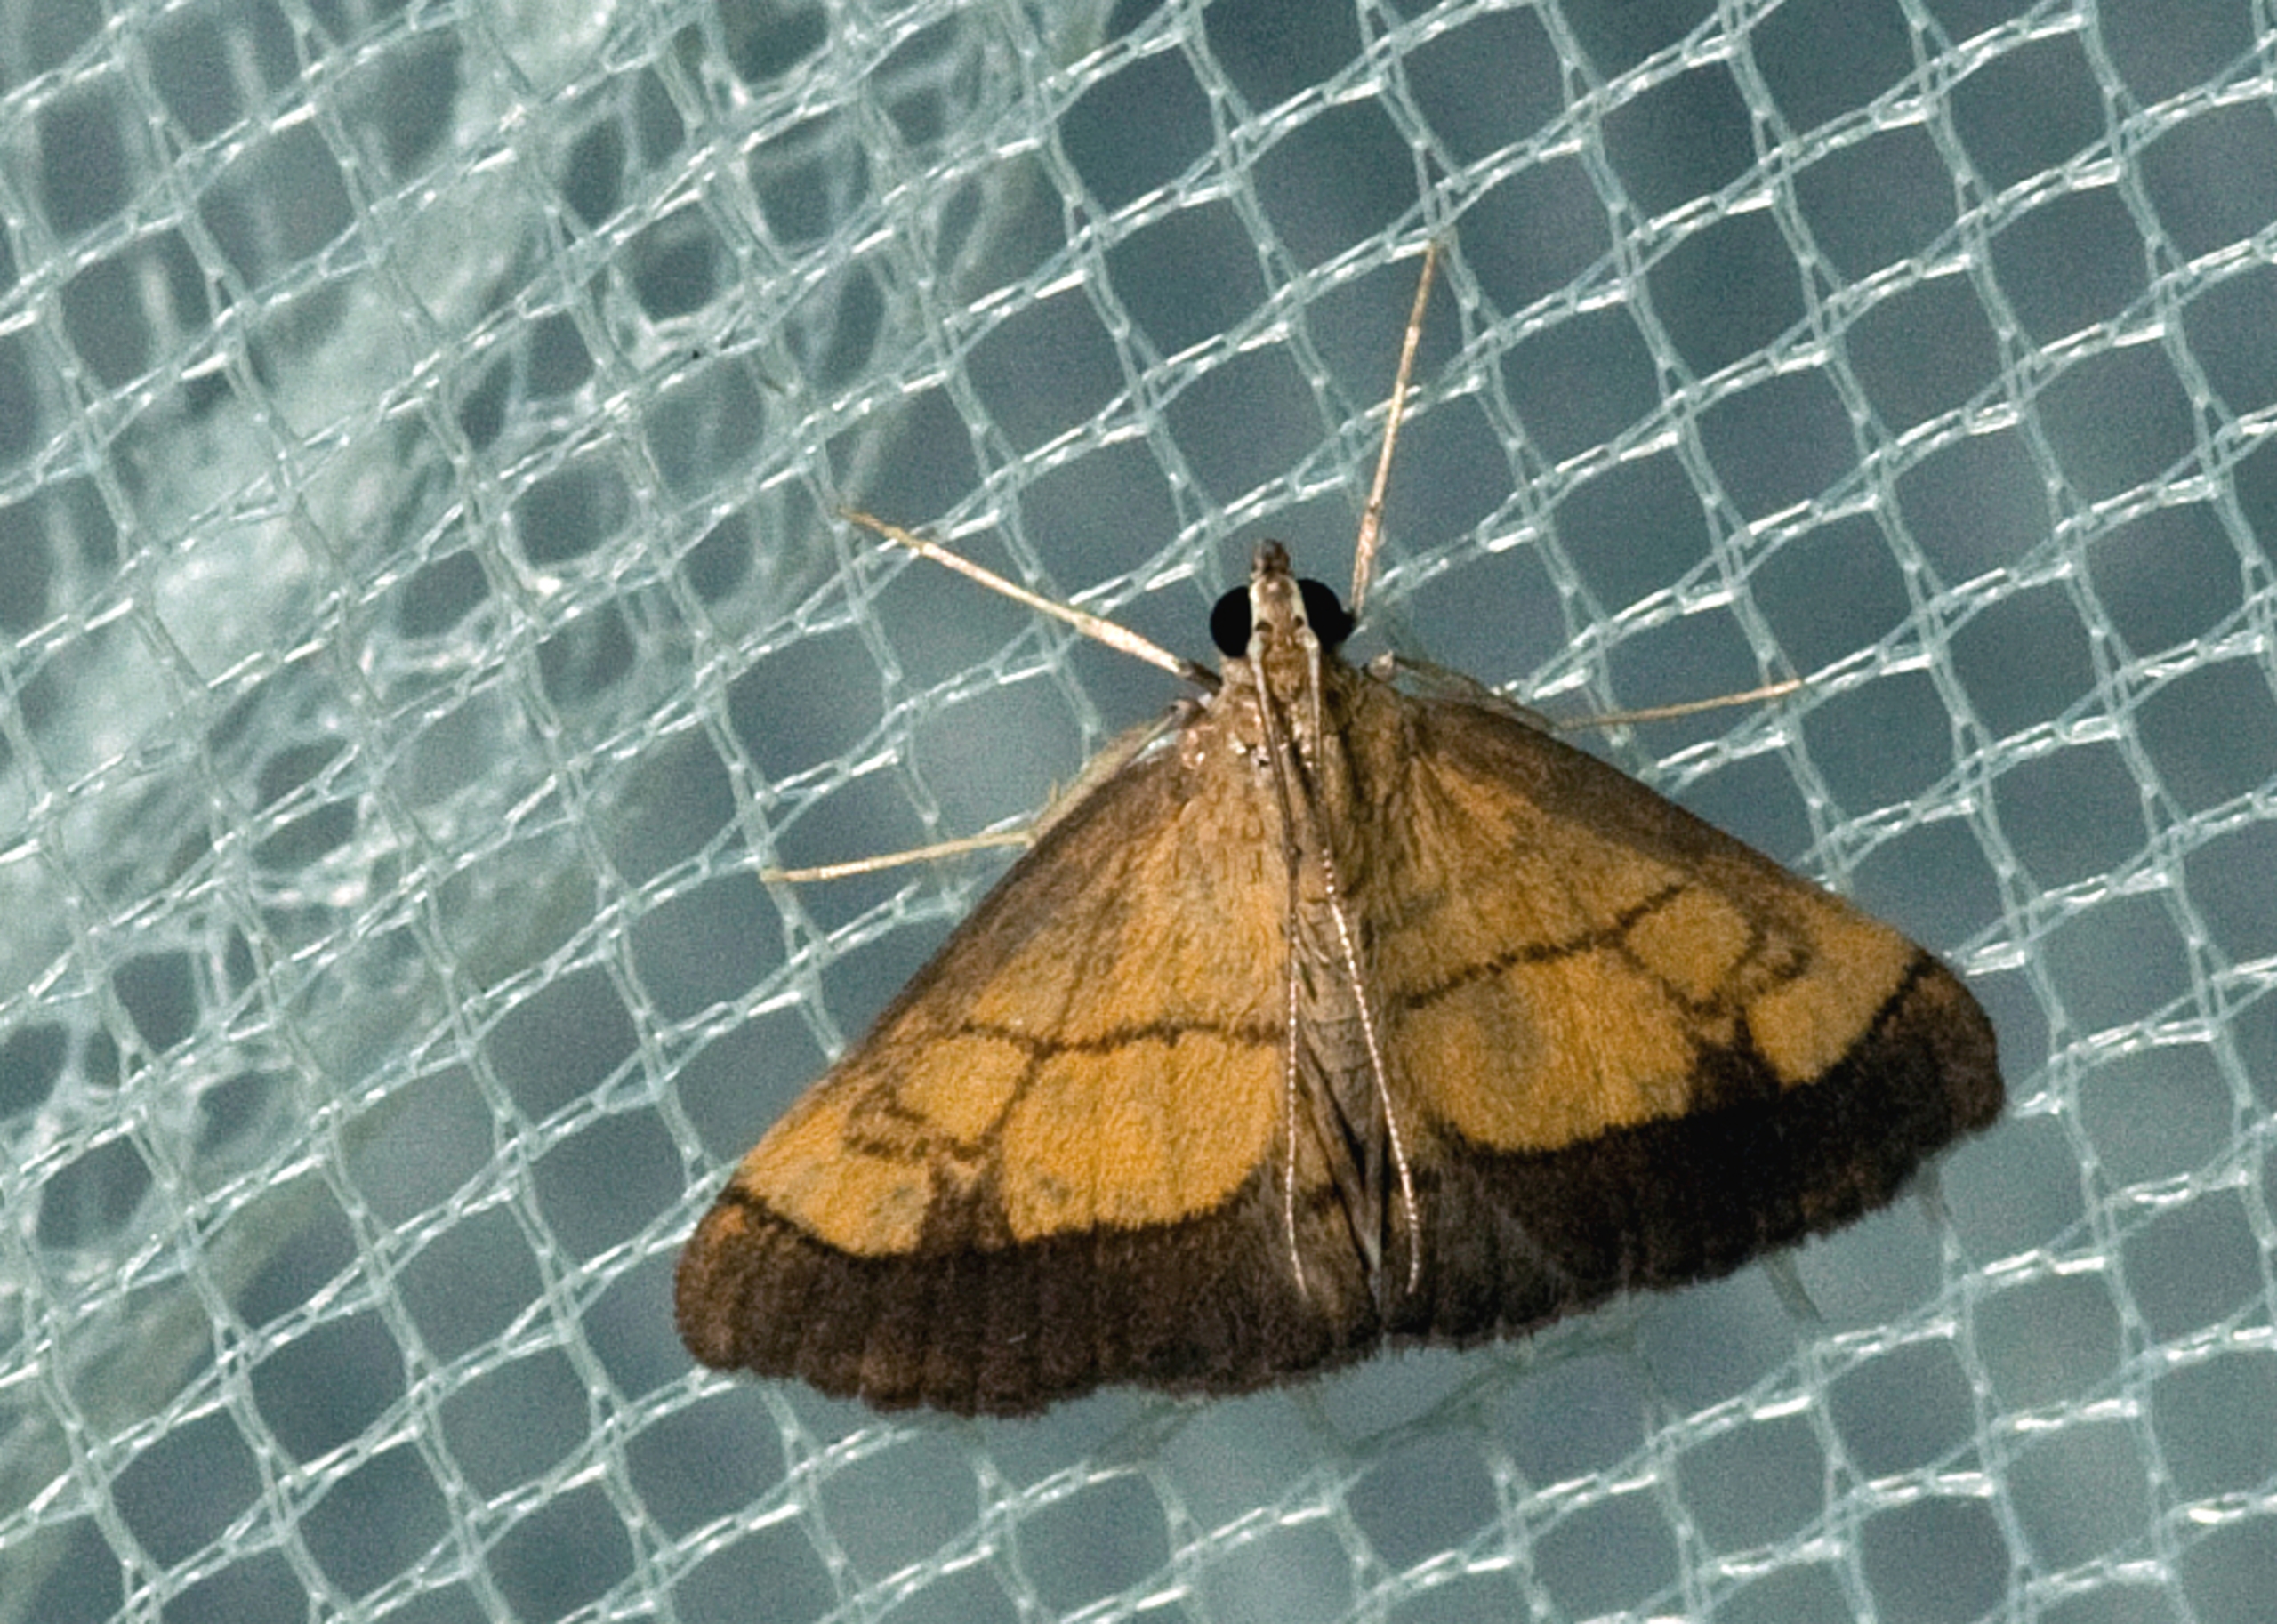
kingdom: Animalia
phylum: Arthropoda
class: Insecta
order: Lepidoptera
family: Crambidae
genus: Evergestis
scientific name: Evergestis limbata
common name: Løgkarsehalvmøl
